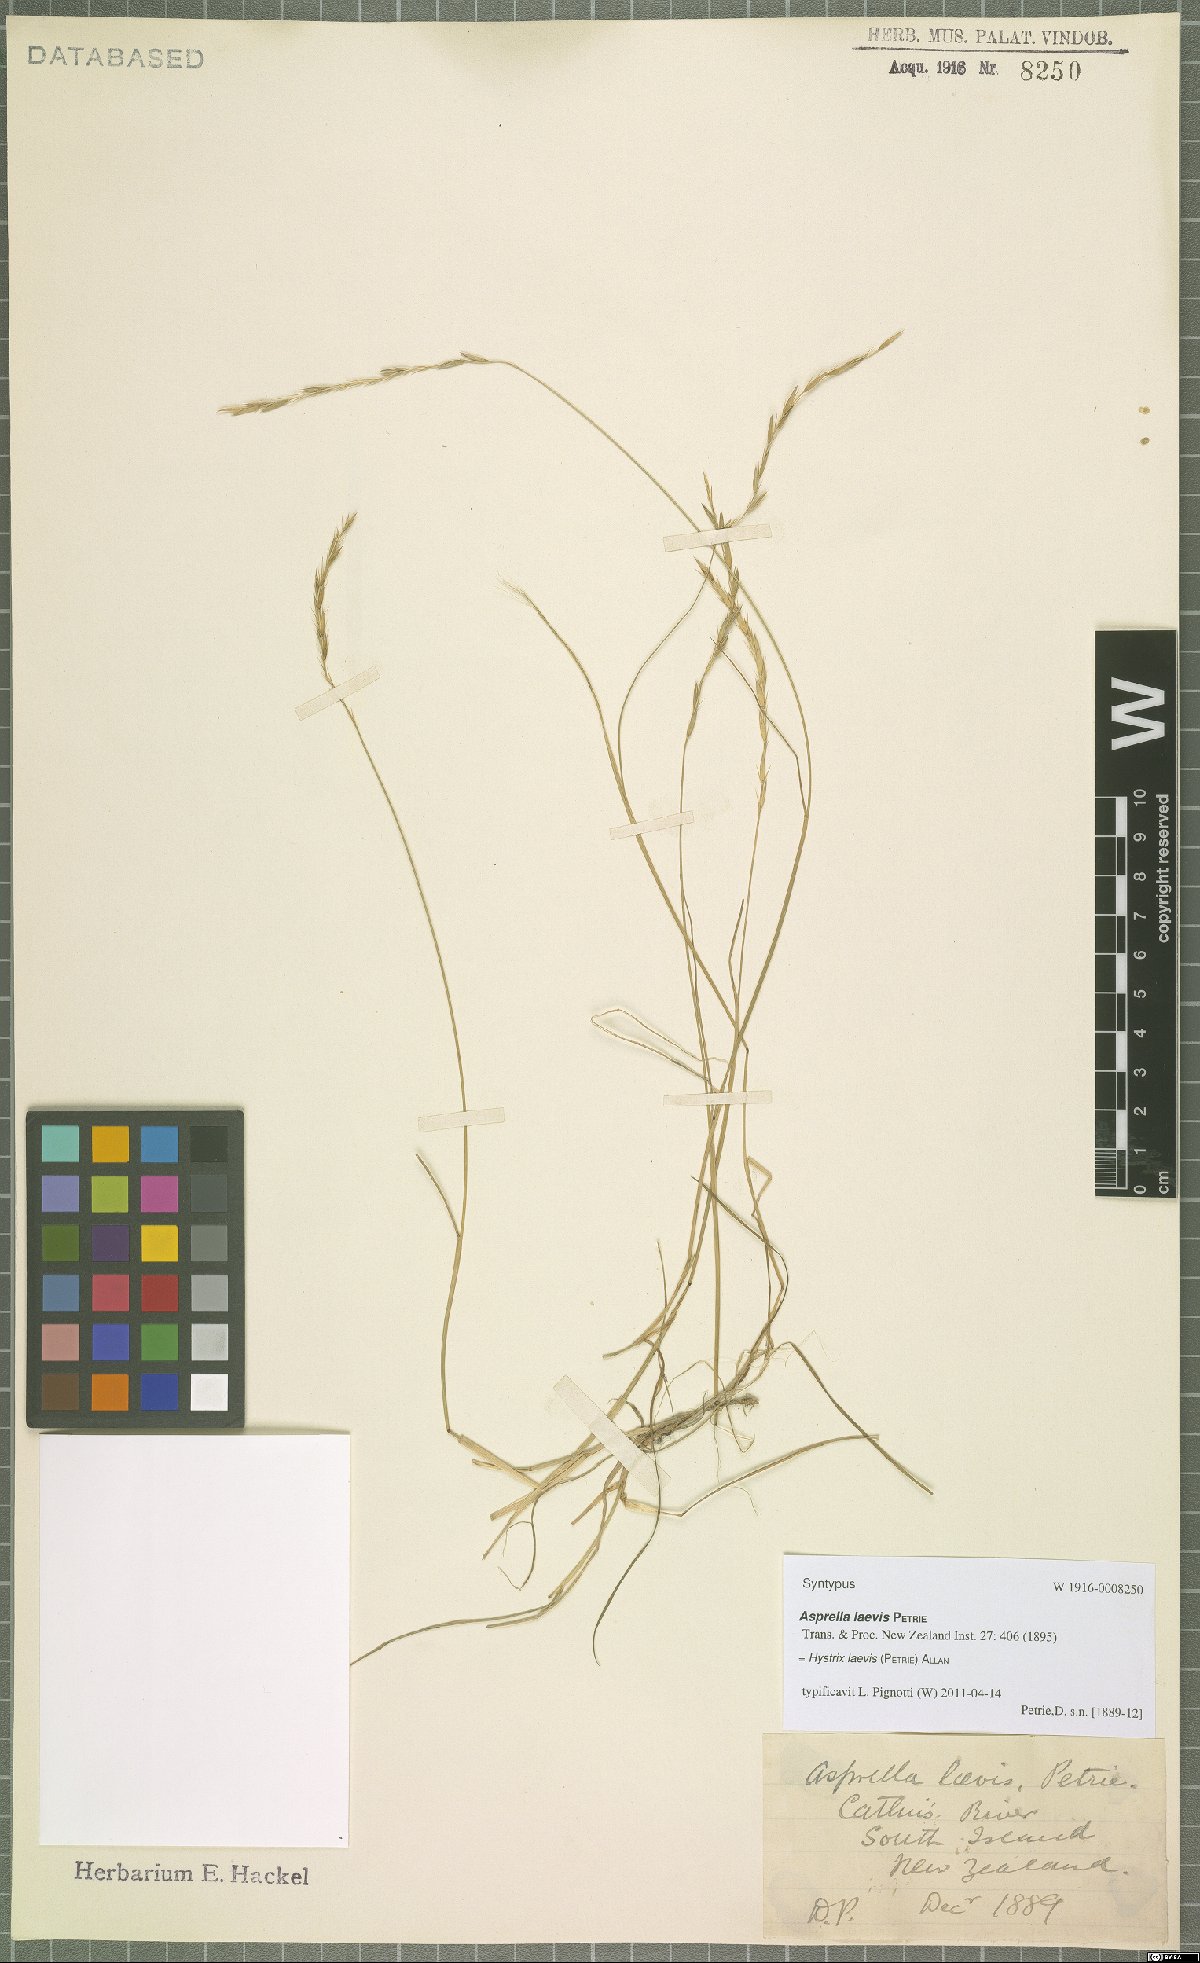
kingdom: Plantae
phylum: Tracheophyta
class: Liliopsida
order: Poales
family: Poaceae
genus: Stenostachys
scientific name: Stenostachys laevis
